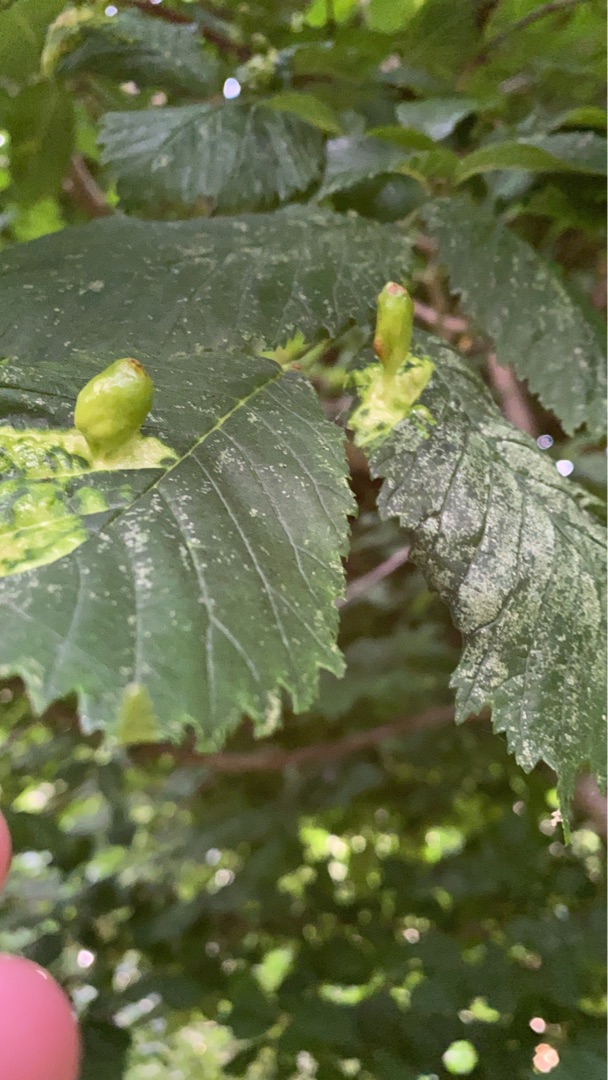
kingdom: Animalia
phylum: Arthropoda
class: Insecta
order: Hemiptera
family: Aphididae
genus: Tetraneura
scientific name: Tetraneura ulmi
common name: Elmegallelus
